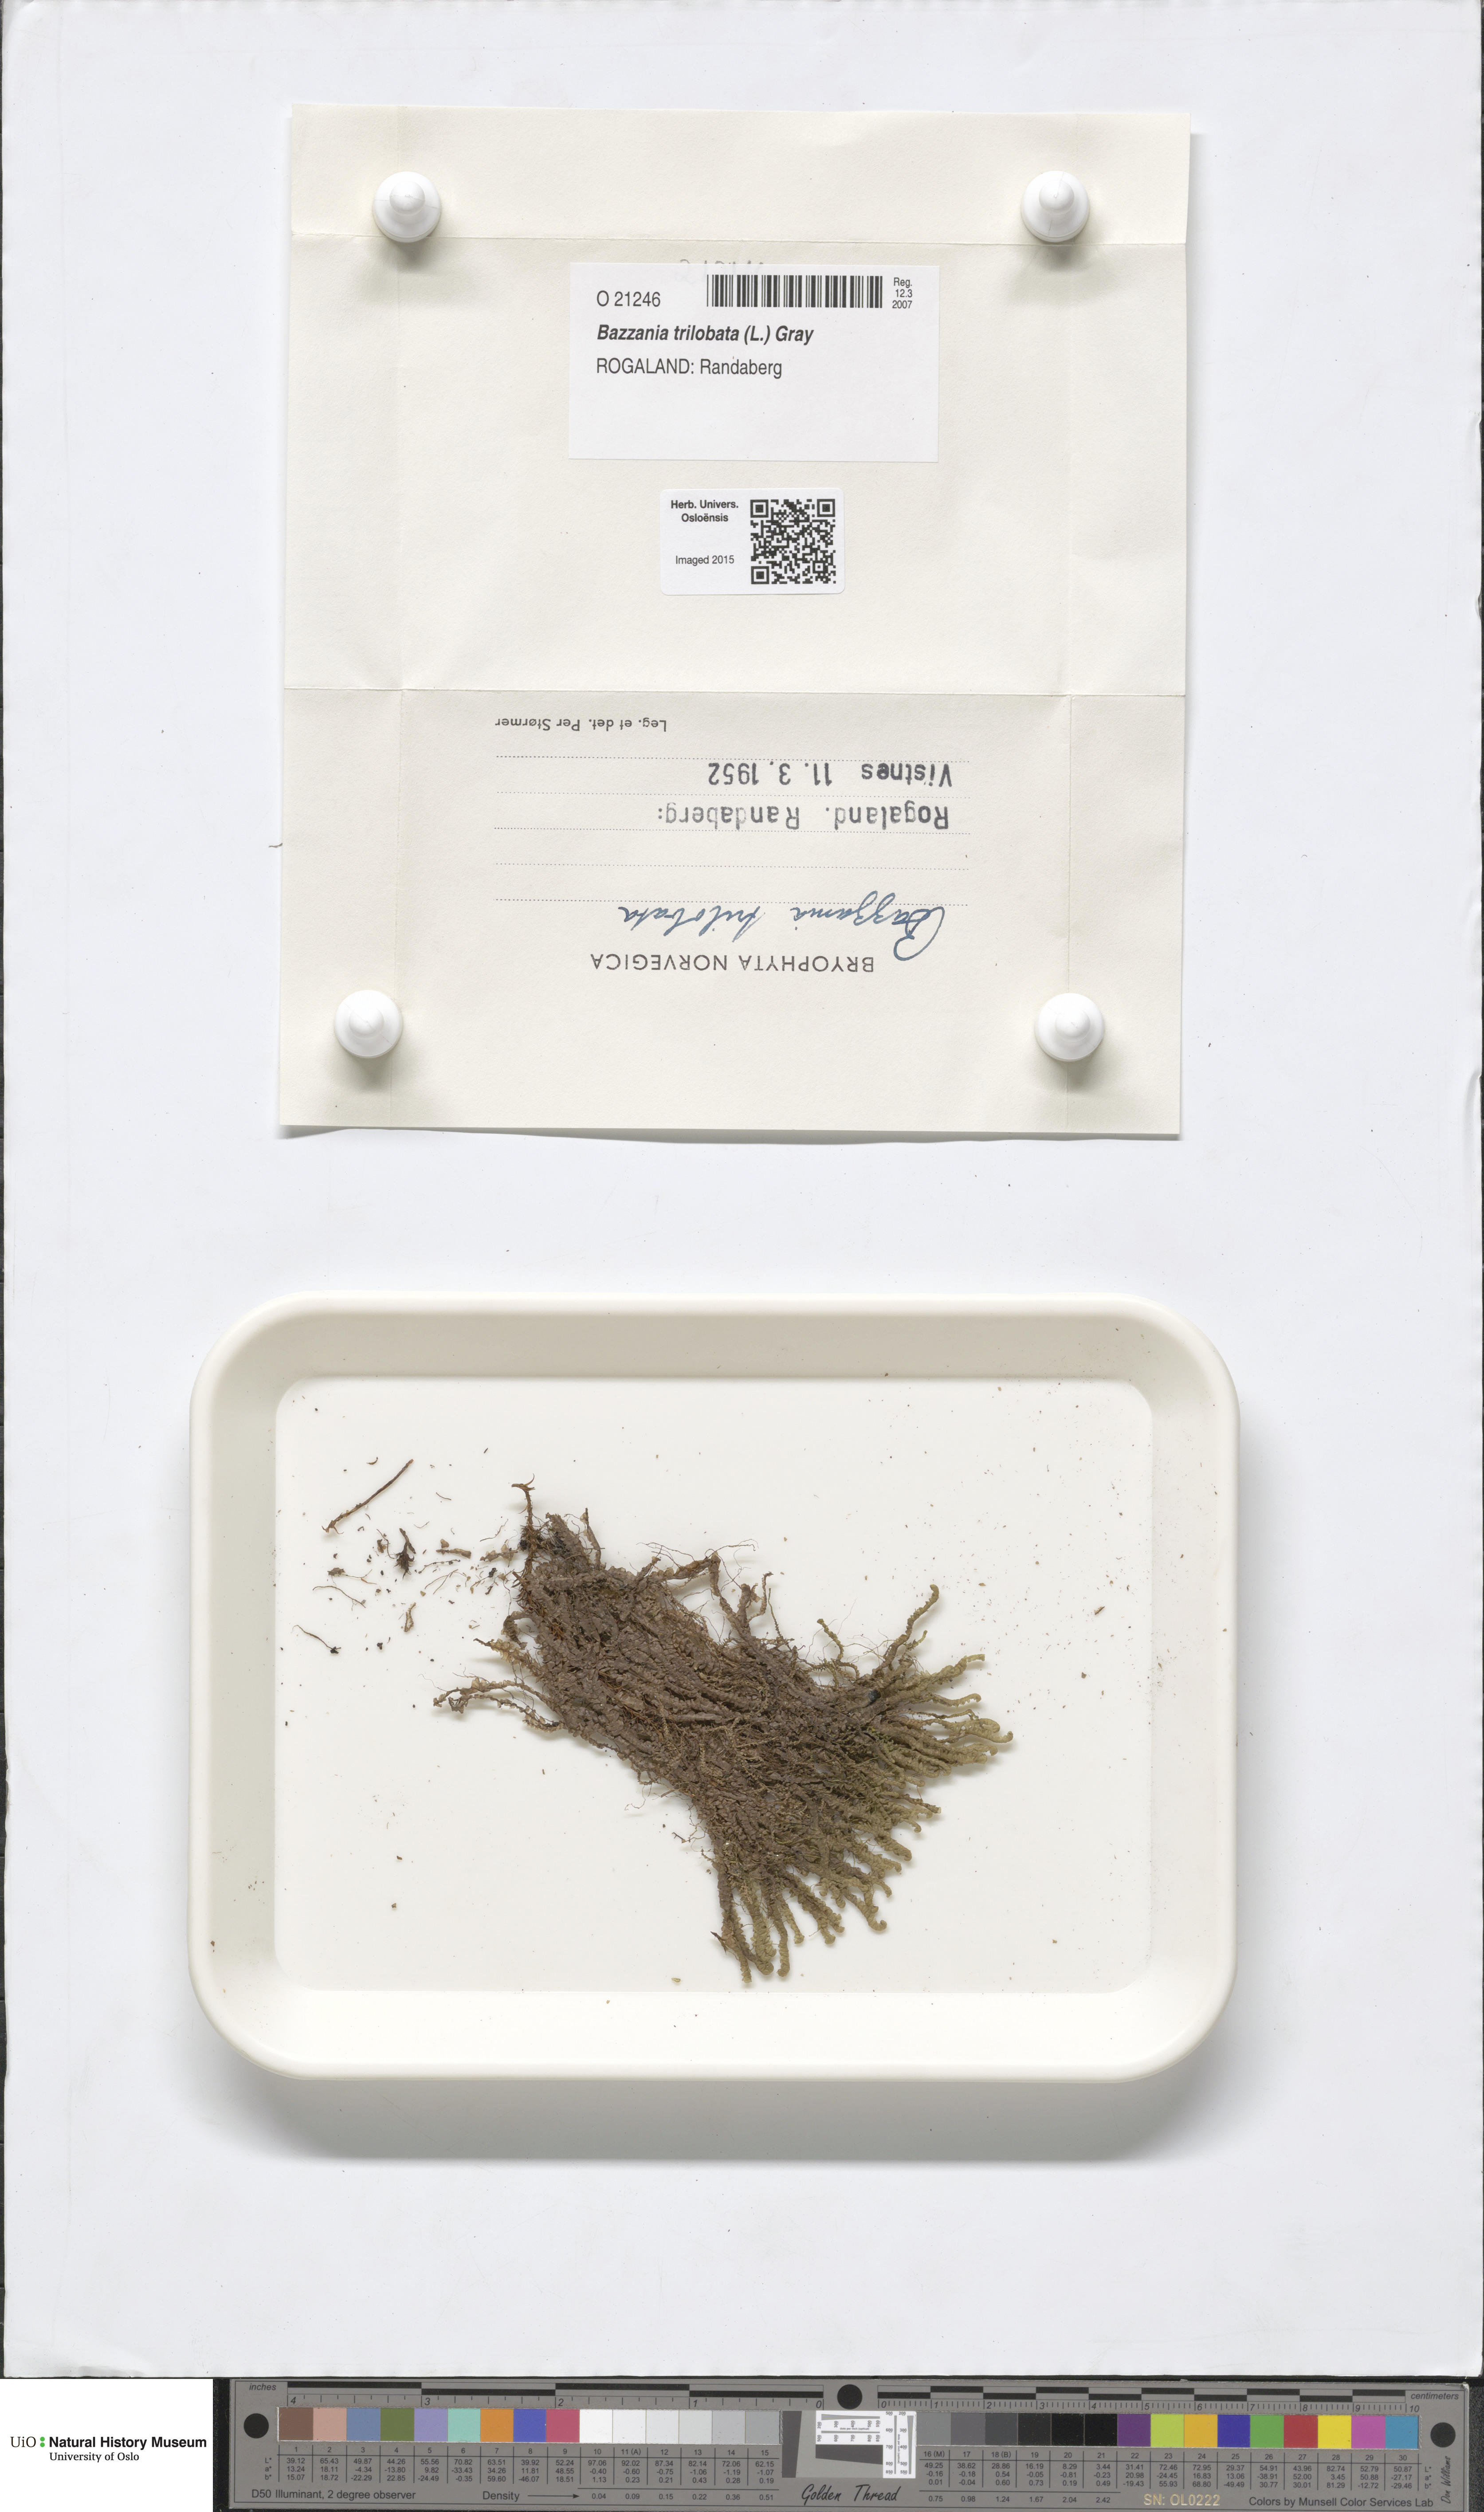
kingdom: Plantae
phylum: Marchantiophyta
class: Jungermanniopsida
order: Jungermanniales
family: Lepidoziaceae
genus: Bazzania
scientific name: Bazzania trilobata
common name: Three-lobed whipwort
